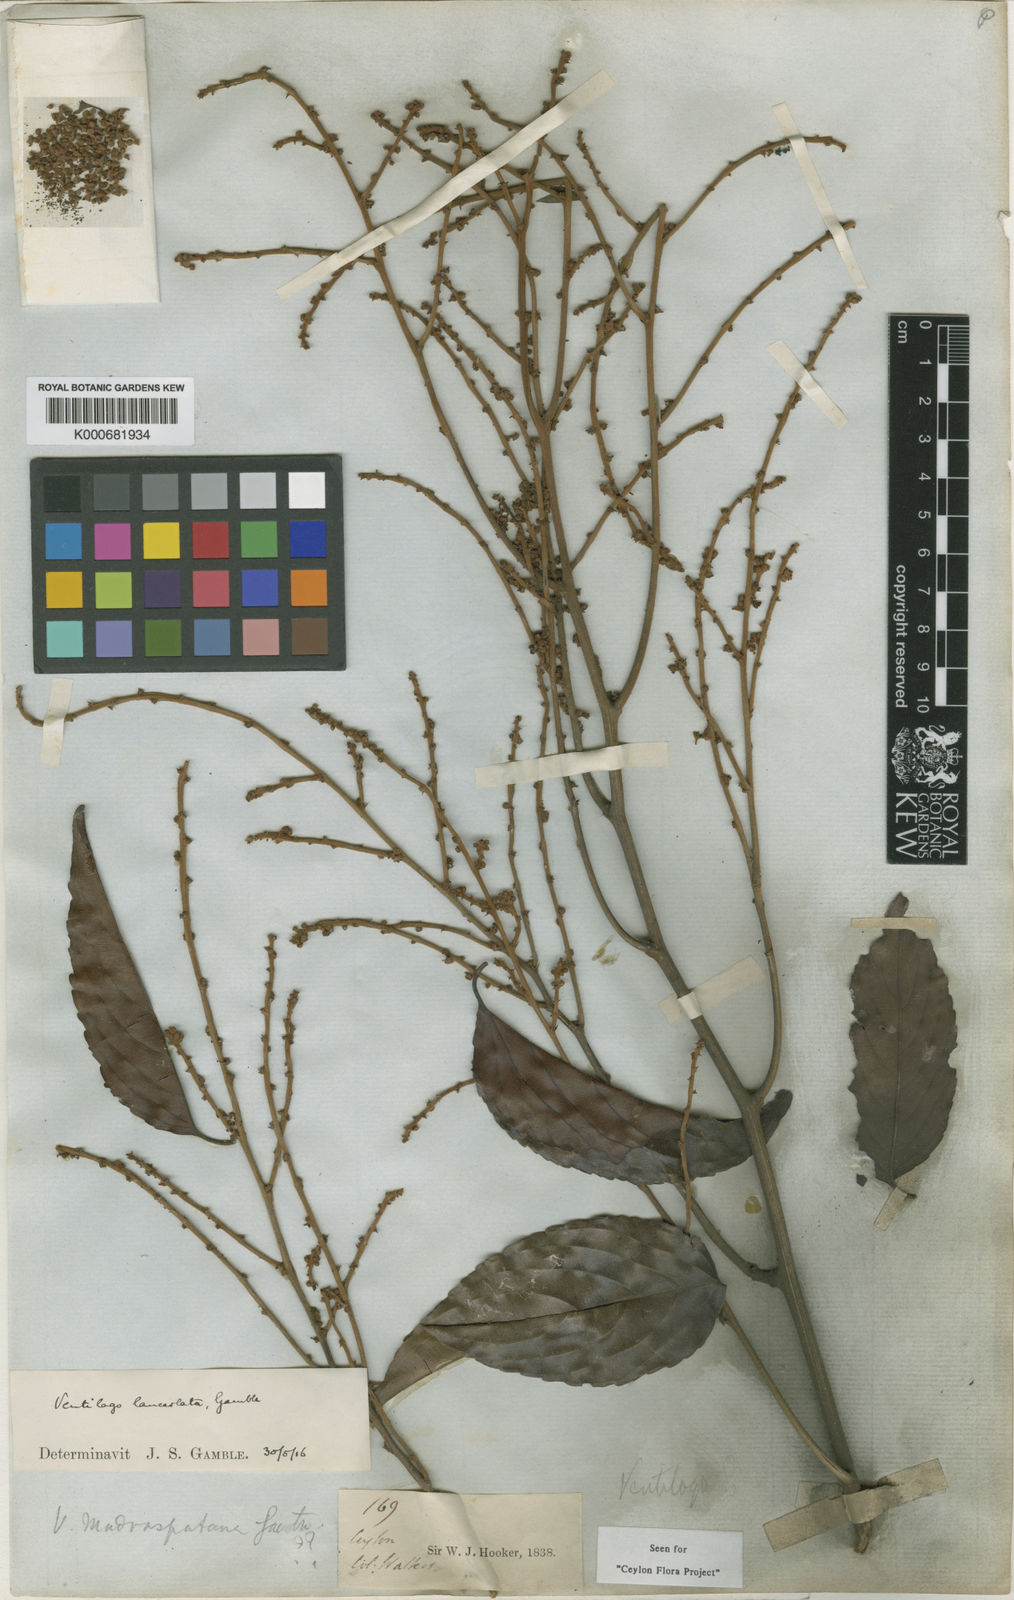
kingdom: Plantae
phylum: Tracheophyta
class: Magnoliopsida
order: Rosales
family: Rhamnaceae
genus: Ventilago
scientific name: Ventilago gamblei
